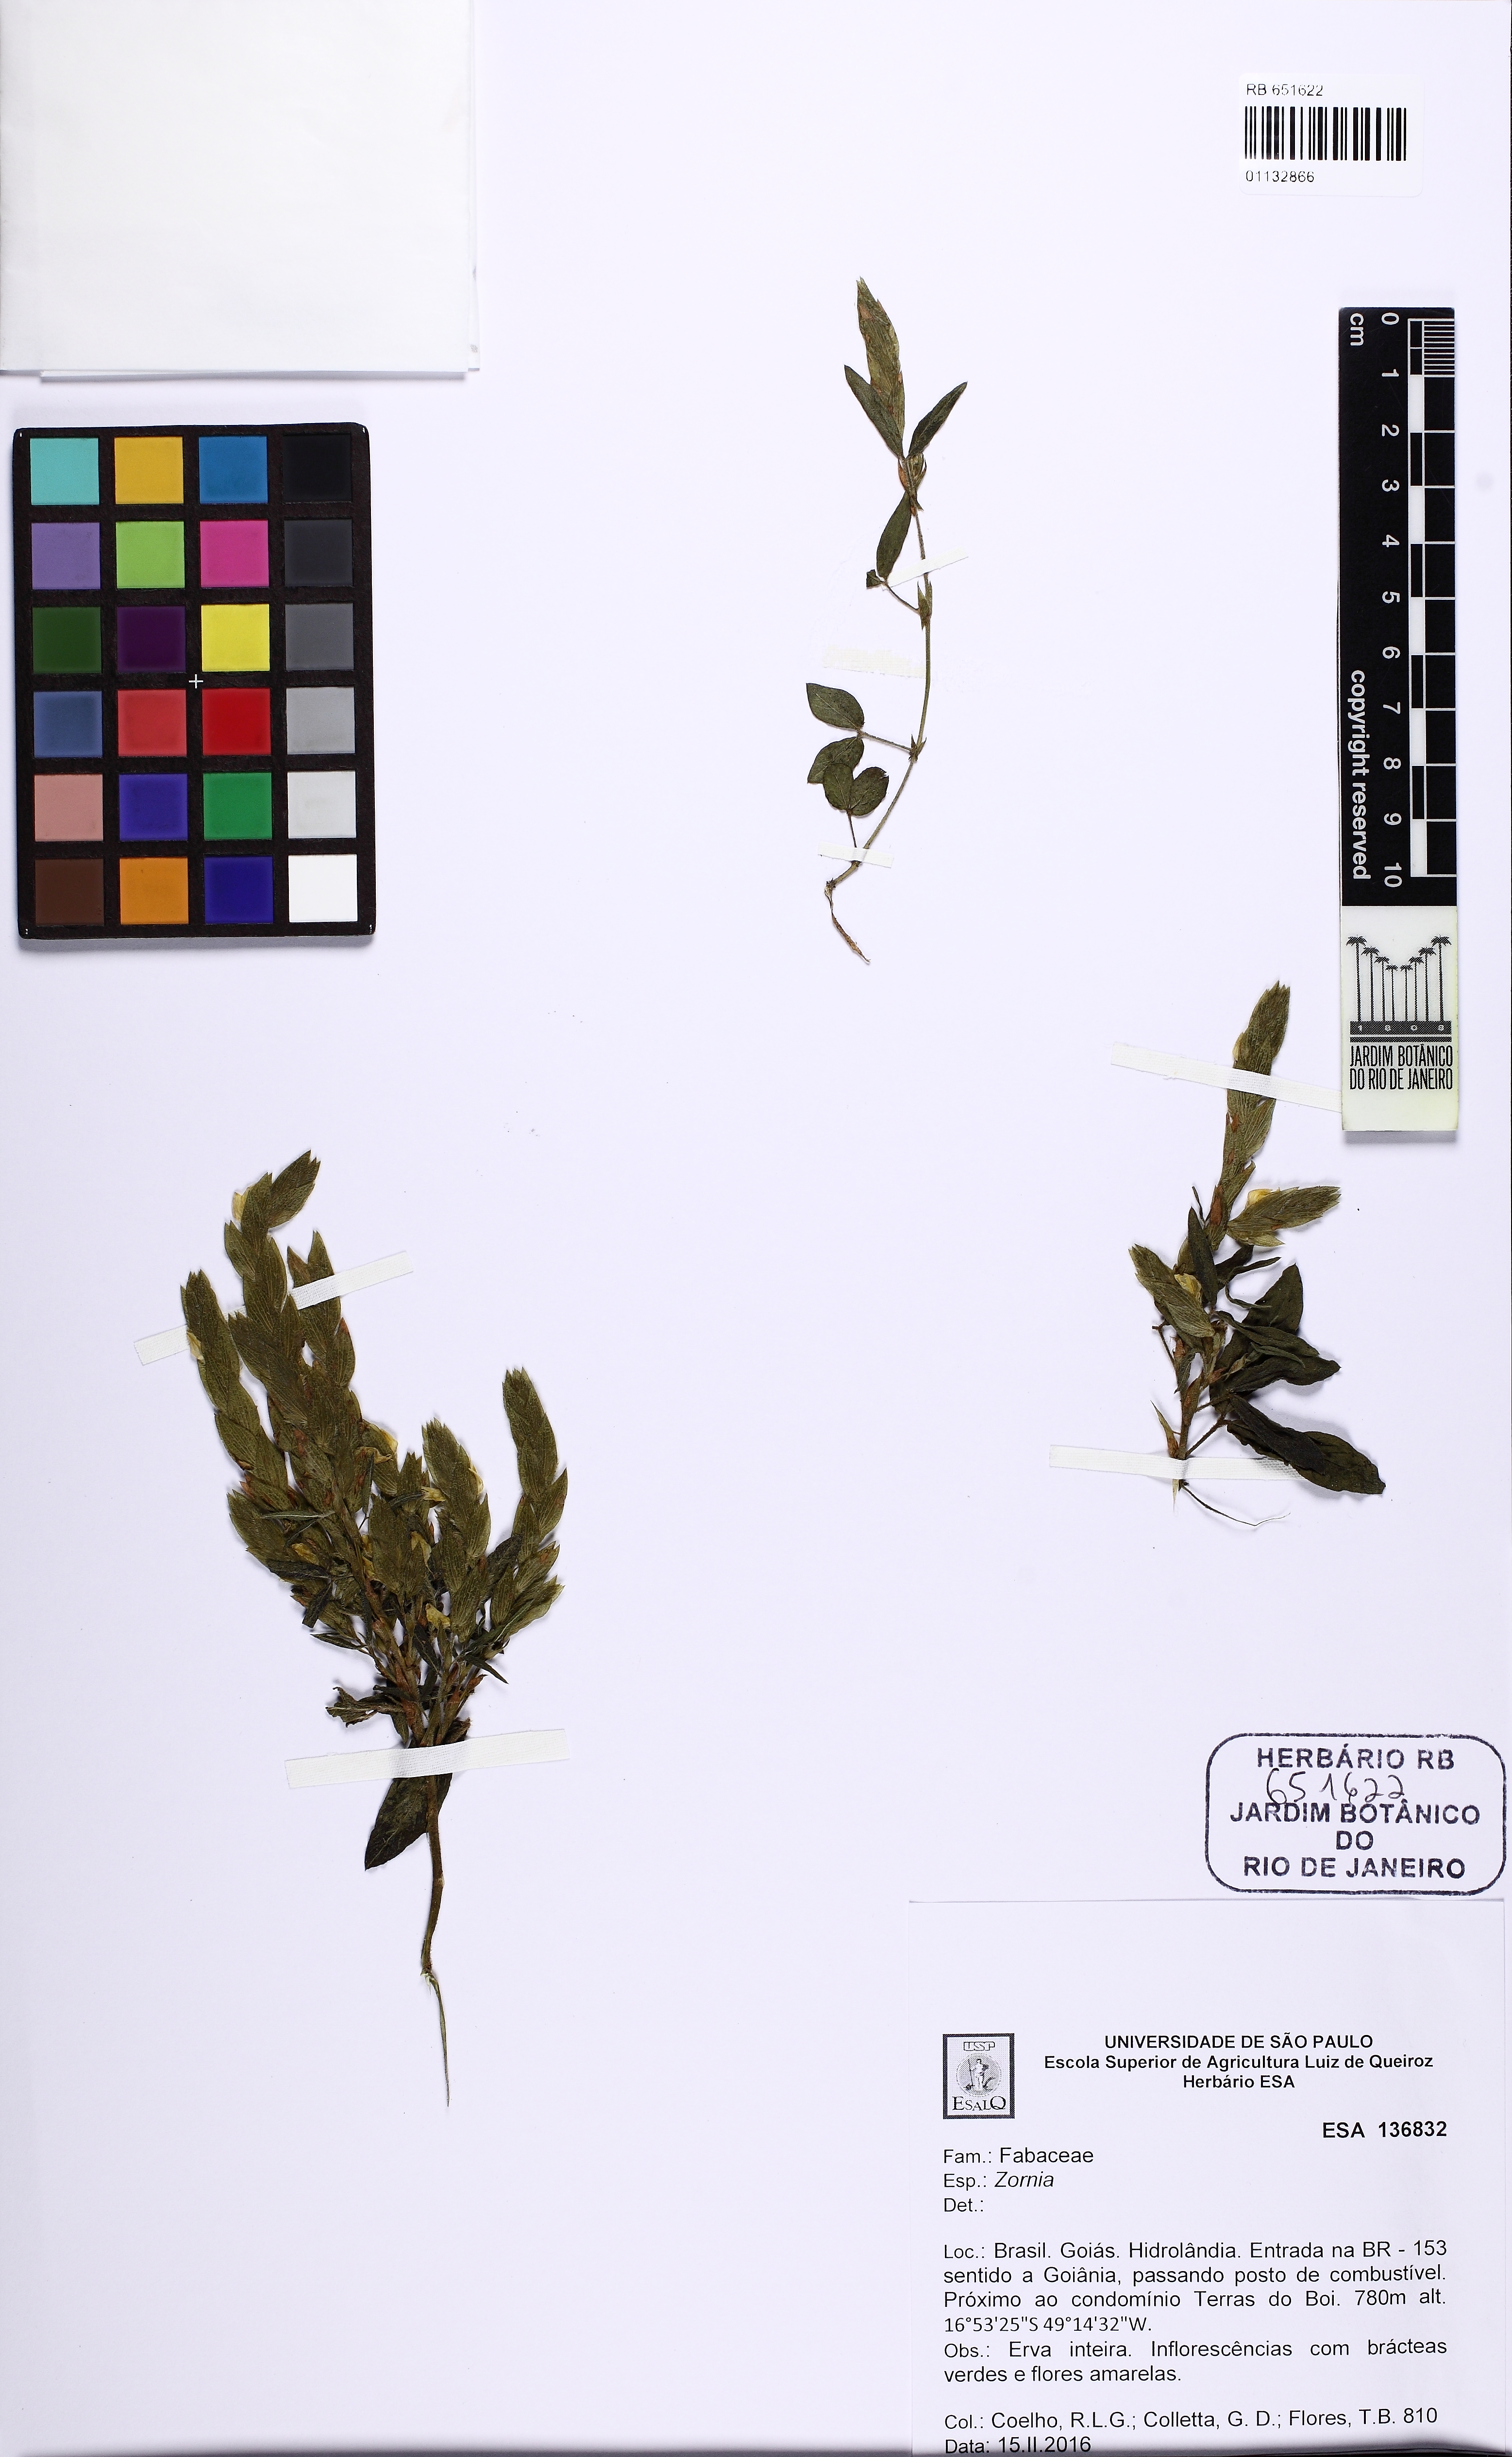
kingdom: Plantae
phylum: Tracheophyta
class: Magnoliopsida
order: Fabales
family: Fabaceae
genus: Zornia
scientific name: Zornia pardina
